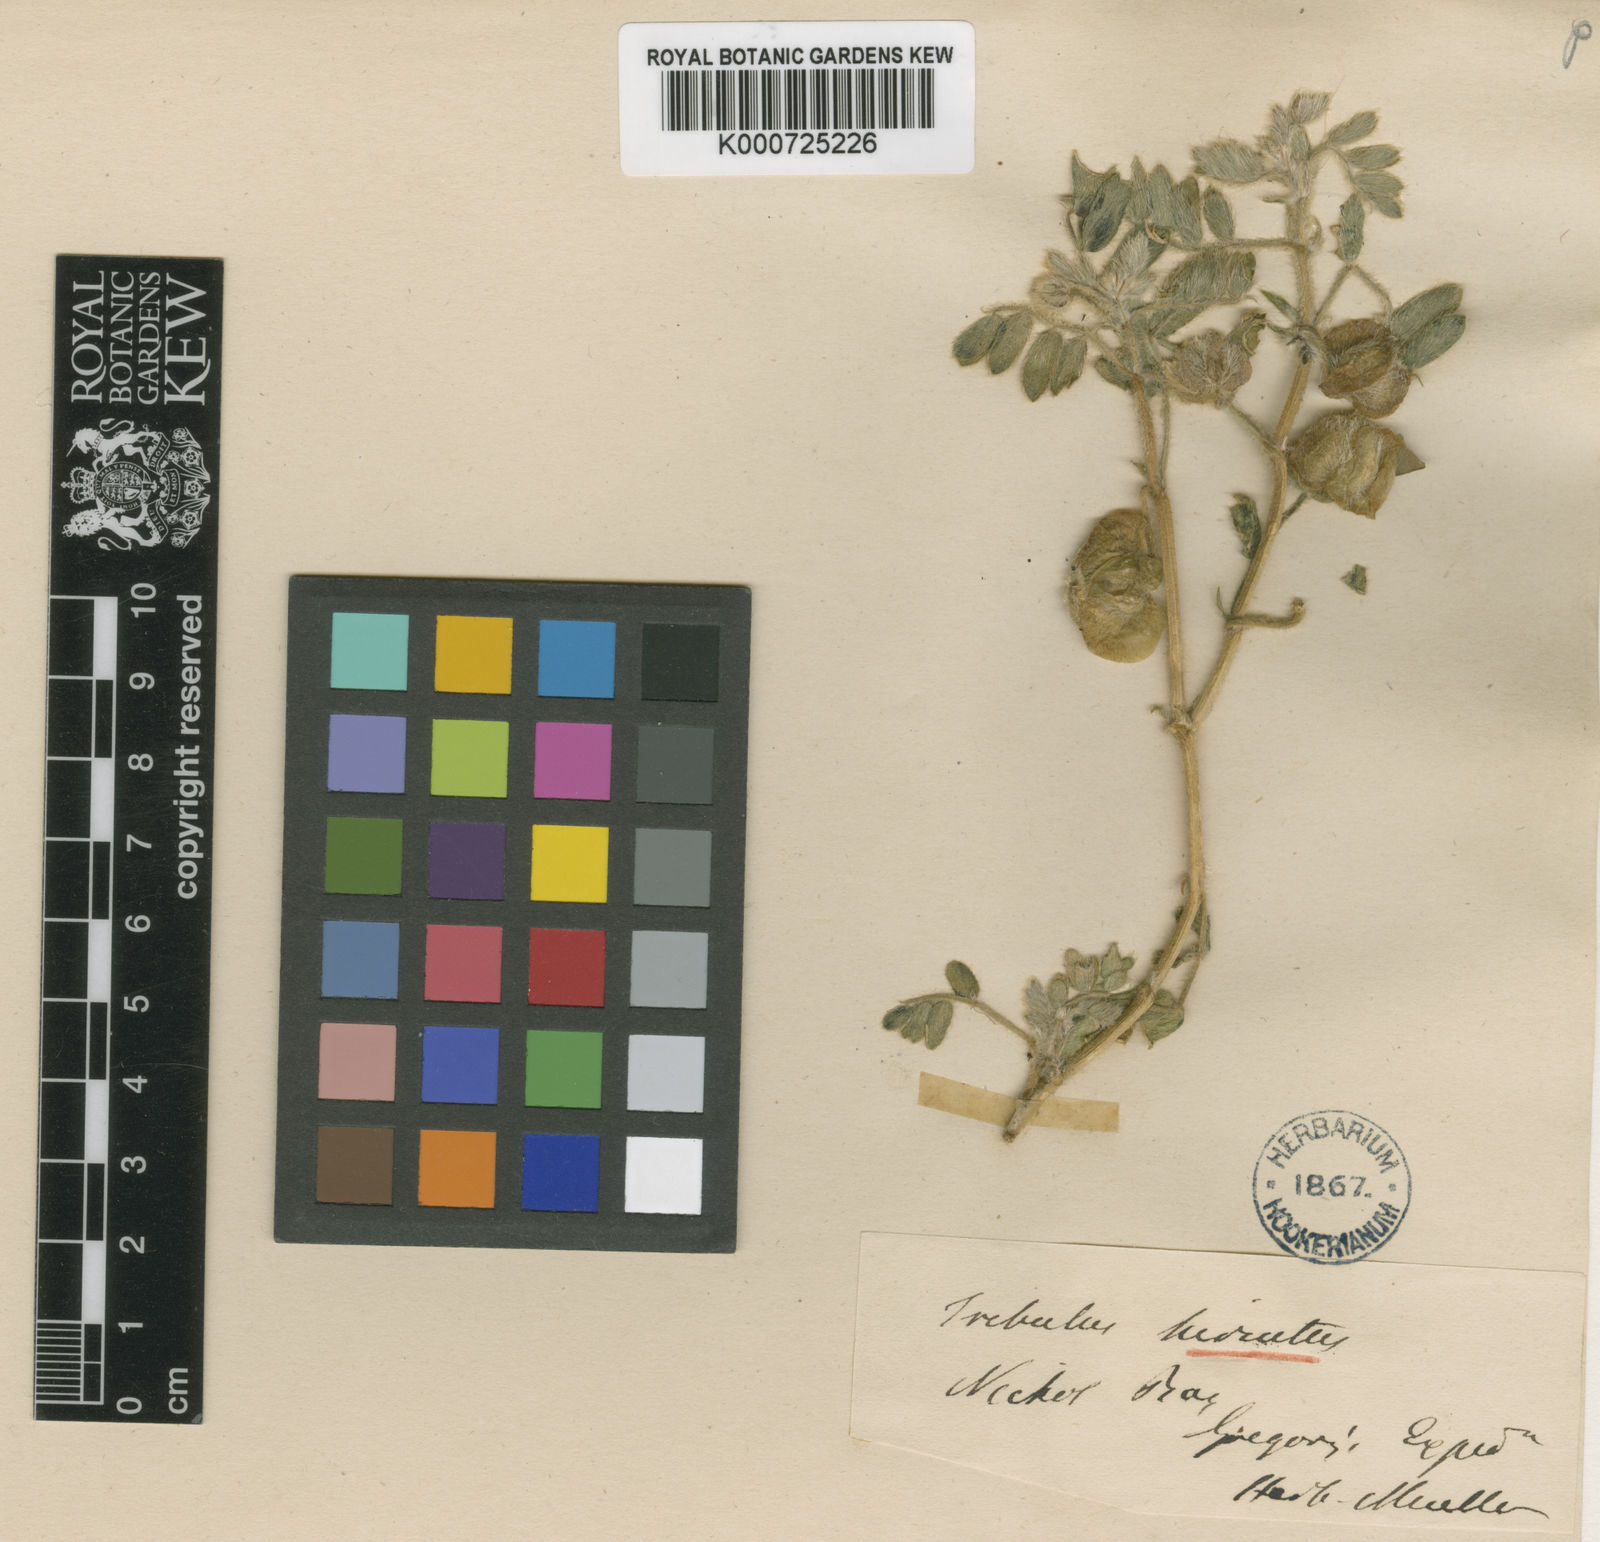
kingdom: Plantae
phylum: Tracheophyta
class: Magnoliopsida
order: Zygophyllales
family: Zygophyllaceae
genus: Tribulus
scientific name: Tribulus hirsutus
